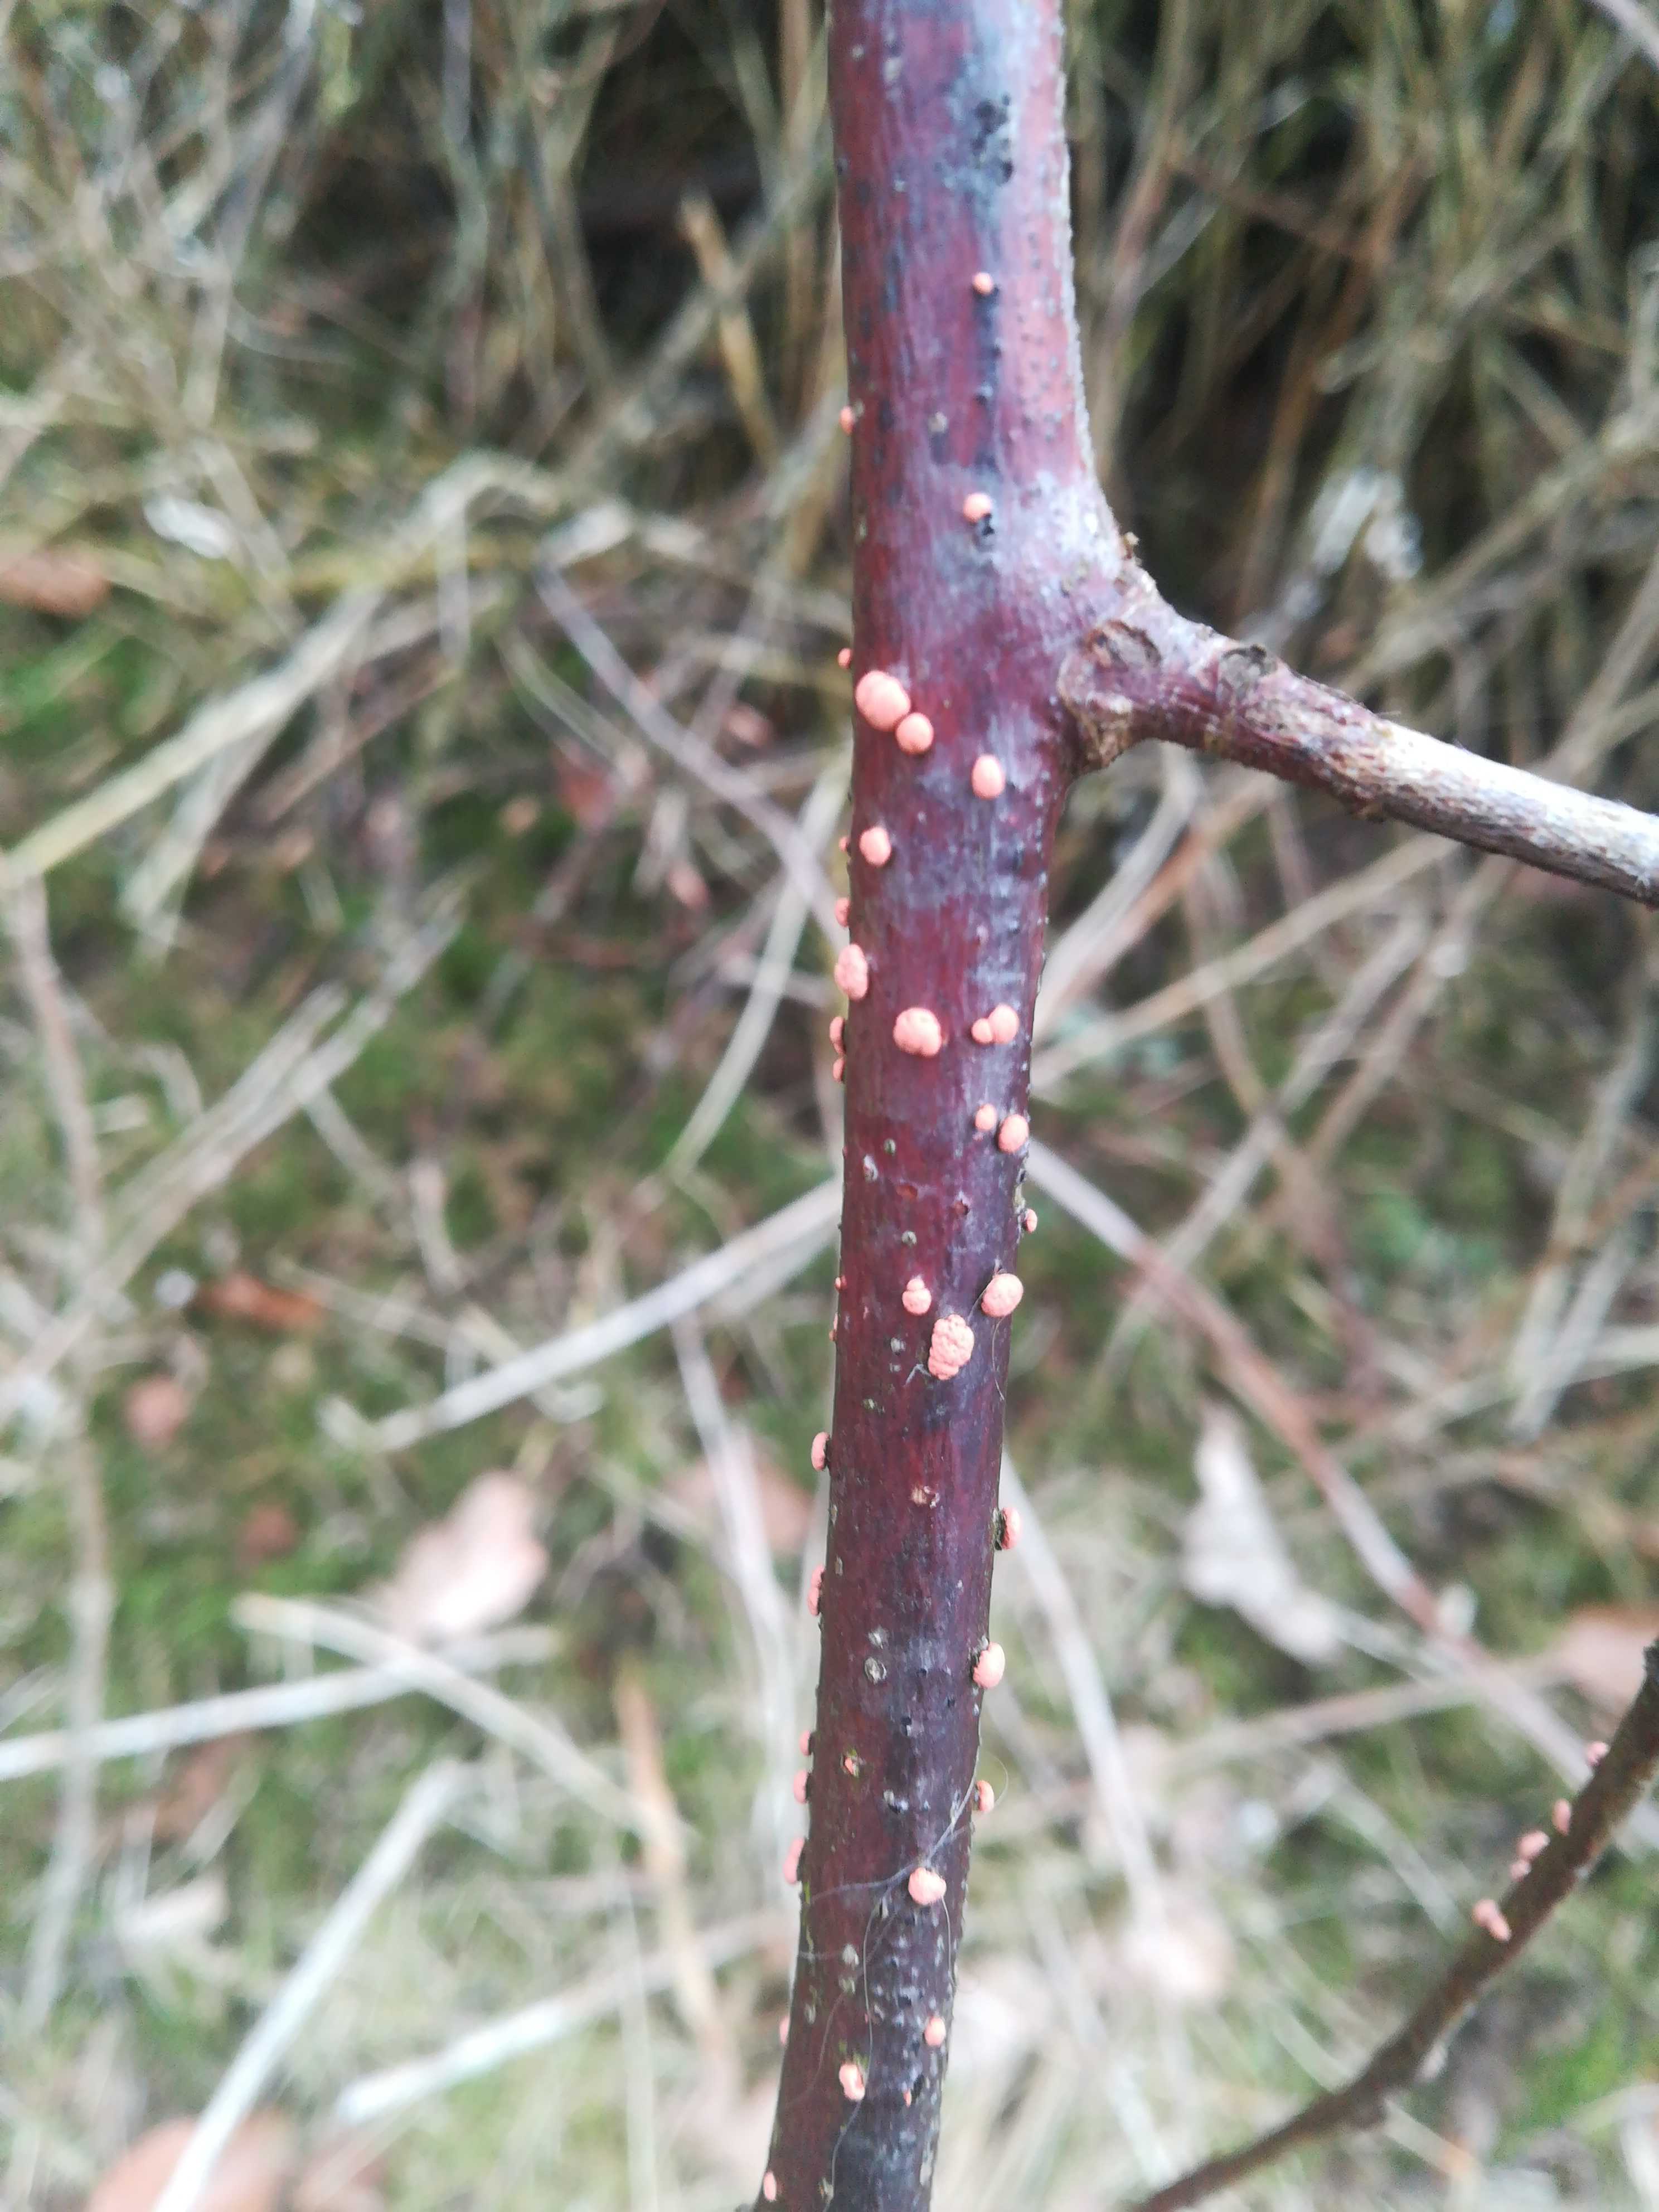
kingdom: Fungi
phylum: Ascomycota
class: Sordariomycetes
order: Hypocreales
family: Nectriaceae
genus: Nectria
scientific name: Nectria cinnabarina
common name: almindelig cinnobersvamp
